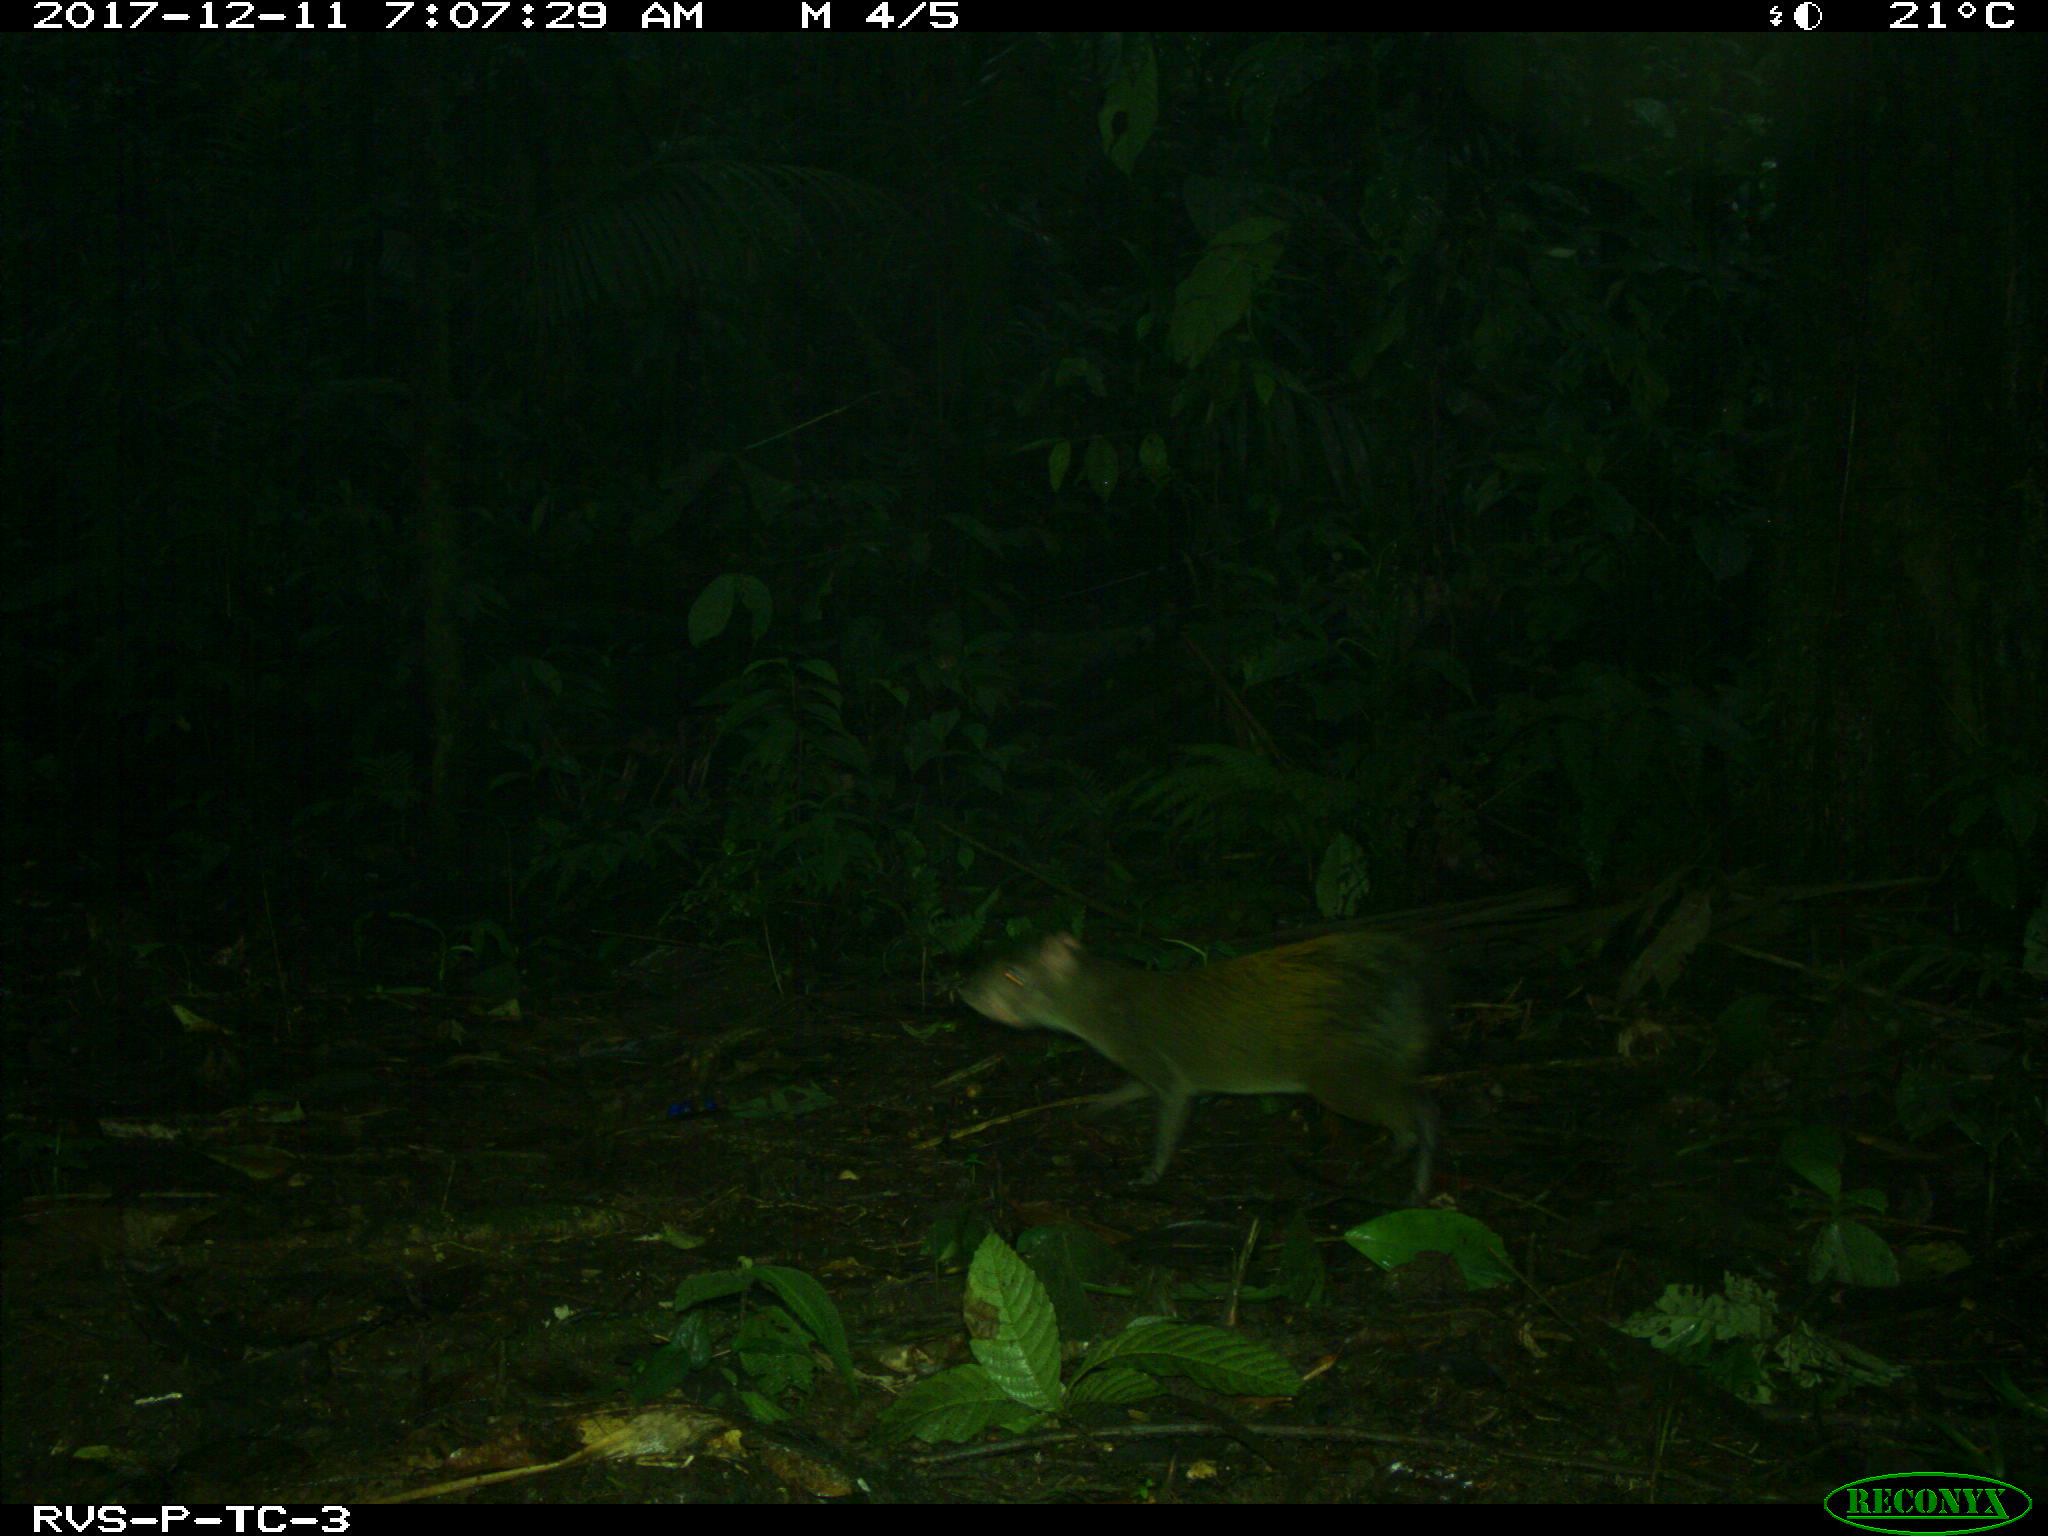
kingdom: Animalia
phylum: Chordata
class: Mammalia
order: Rodentia
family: Dasyproctidae
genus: Dasyprocta
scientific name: Dasyprocta punctata
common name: Central american agouti
